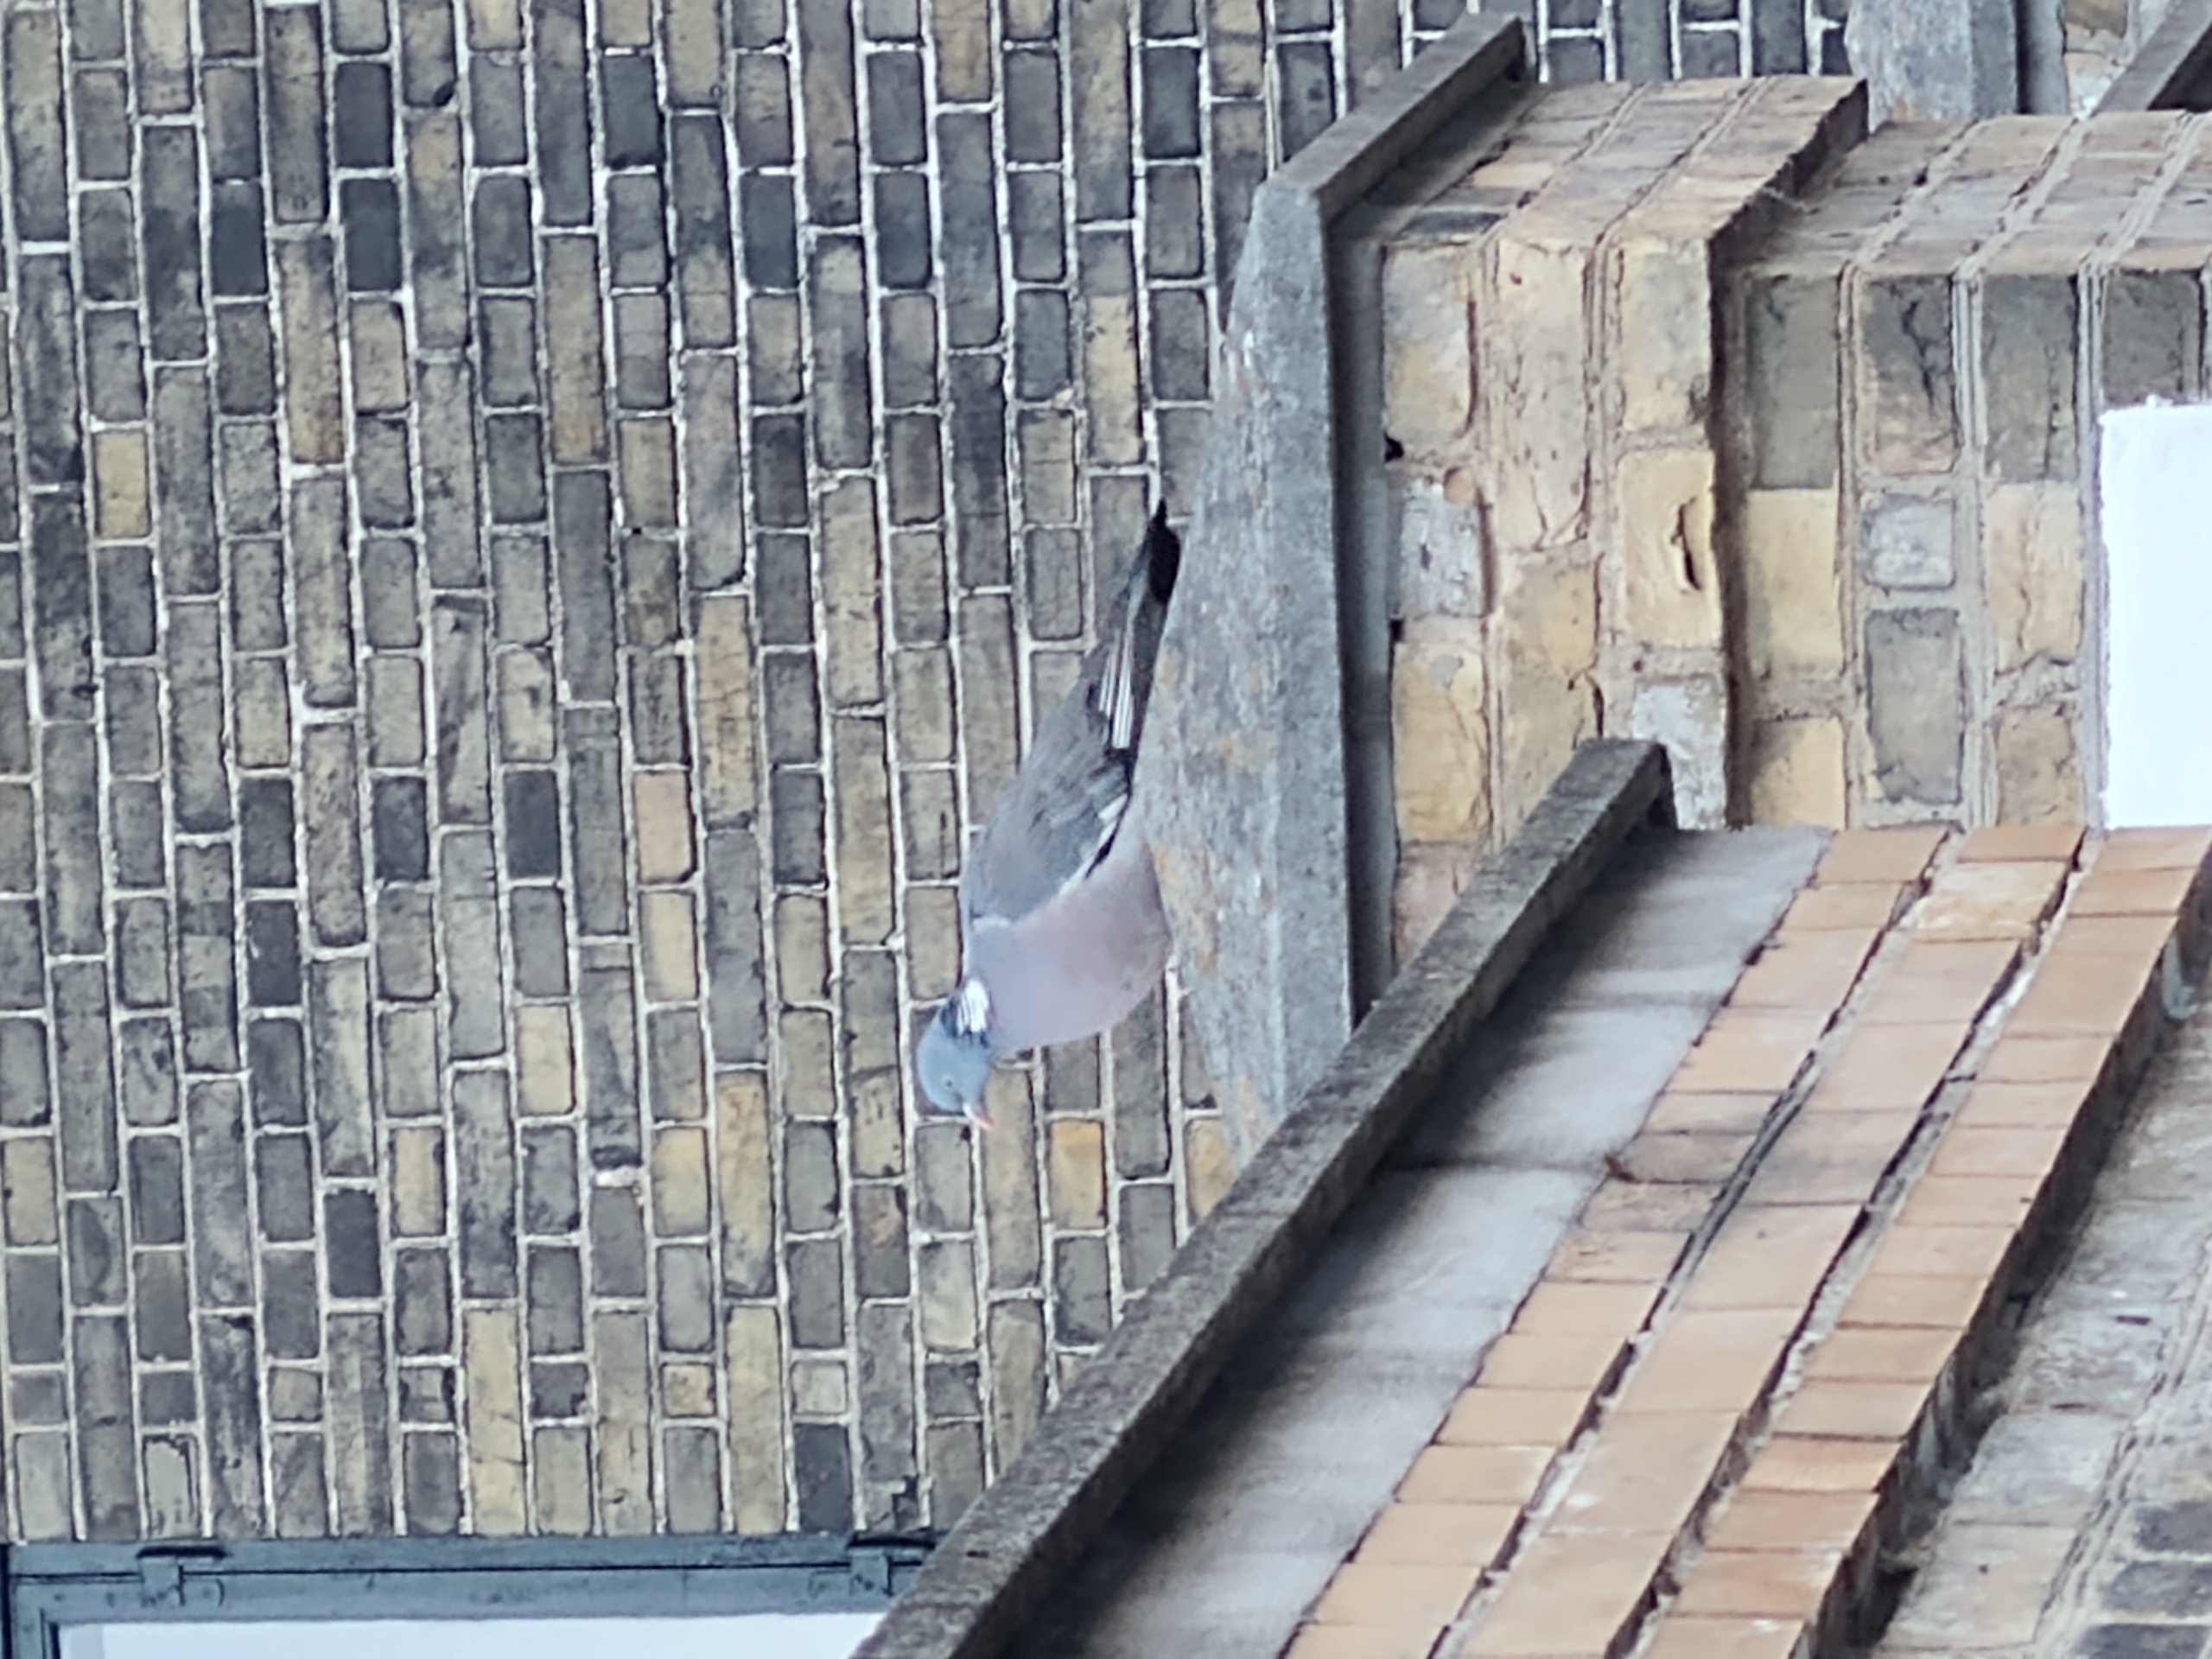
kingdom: Animalia
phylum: Chordata
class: Aves
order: Columbiformes
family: Columbidae
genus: Columba
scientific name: Columba palumbus
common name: Ringdue
